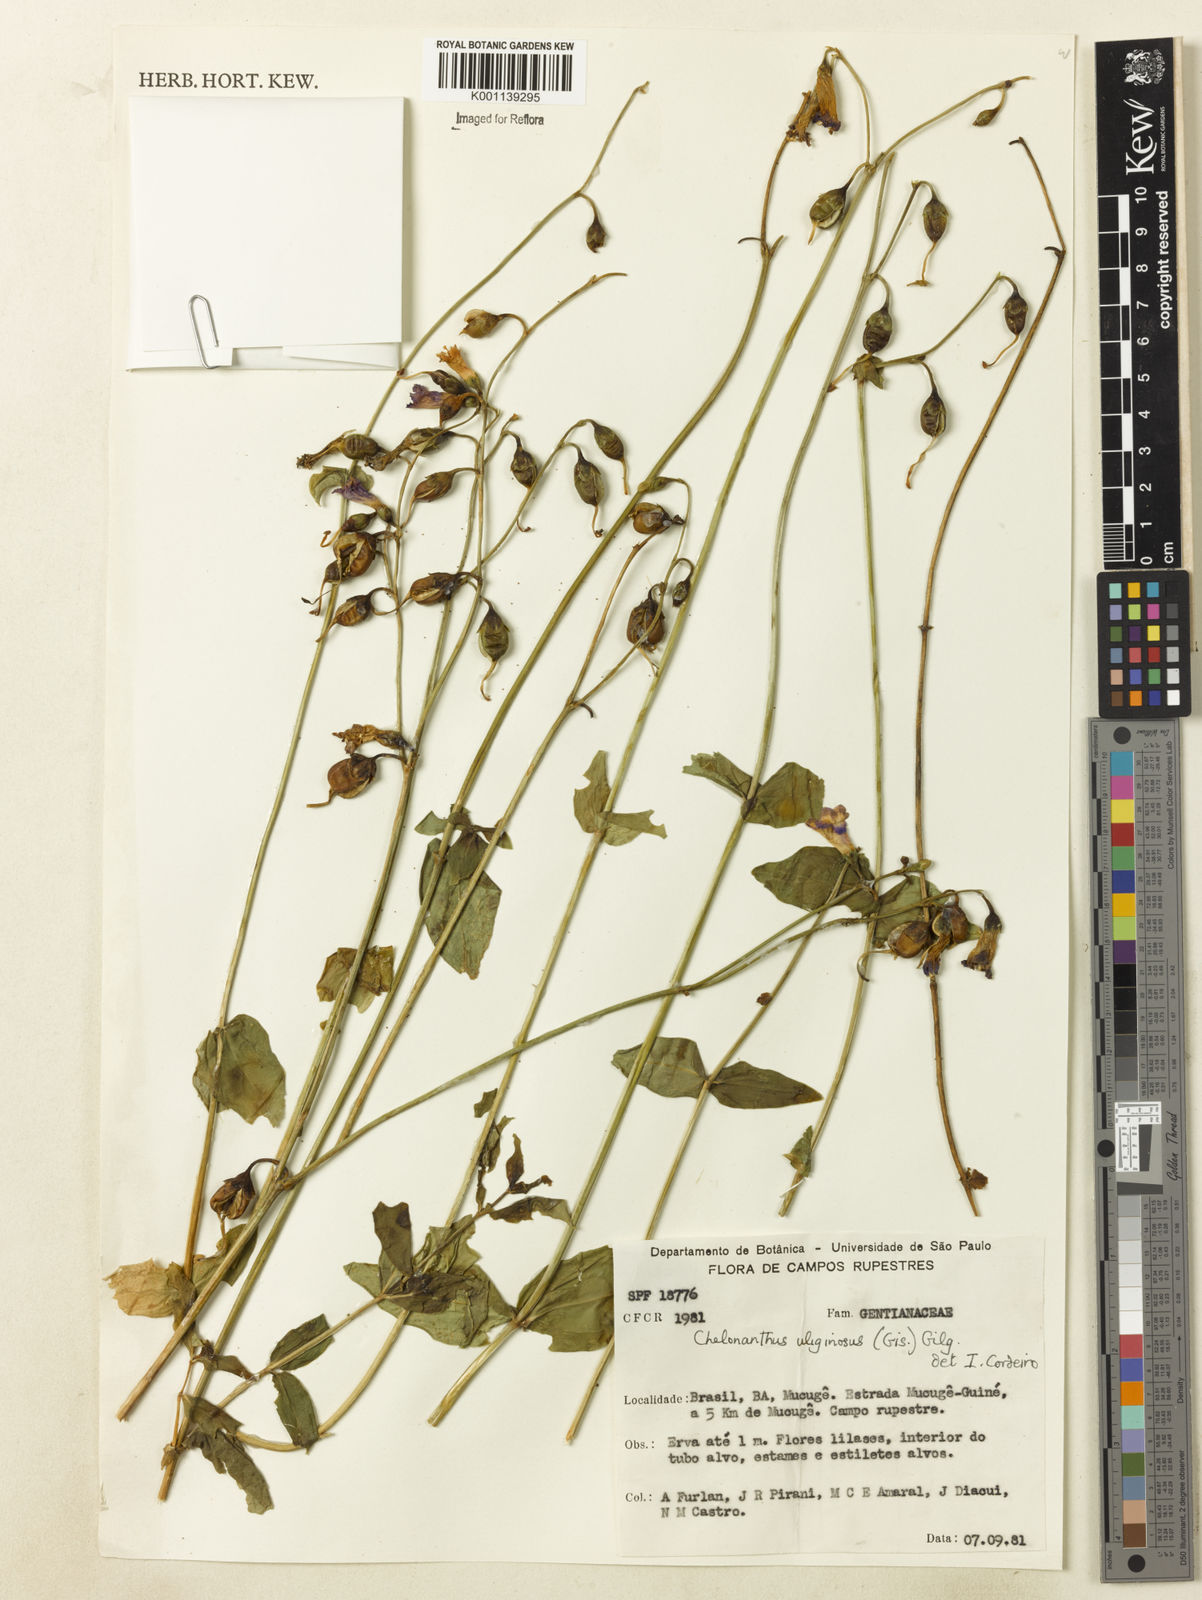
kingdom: Plantae
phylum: Tracheophyta
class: Magnoliopsida
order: Gentianales
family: Gentianaceae
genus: Chelonanthus
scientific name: Chelonanthus purpurascens
